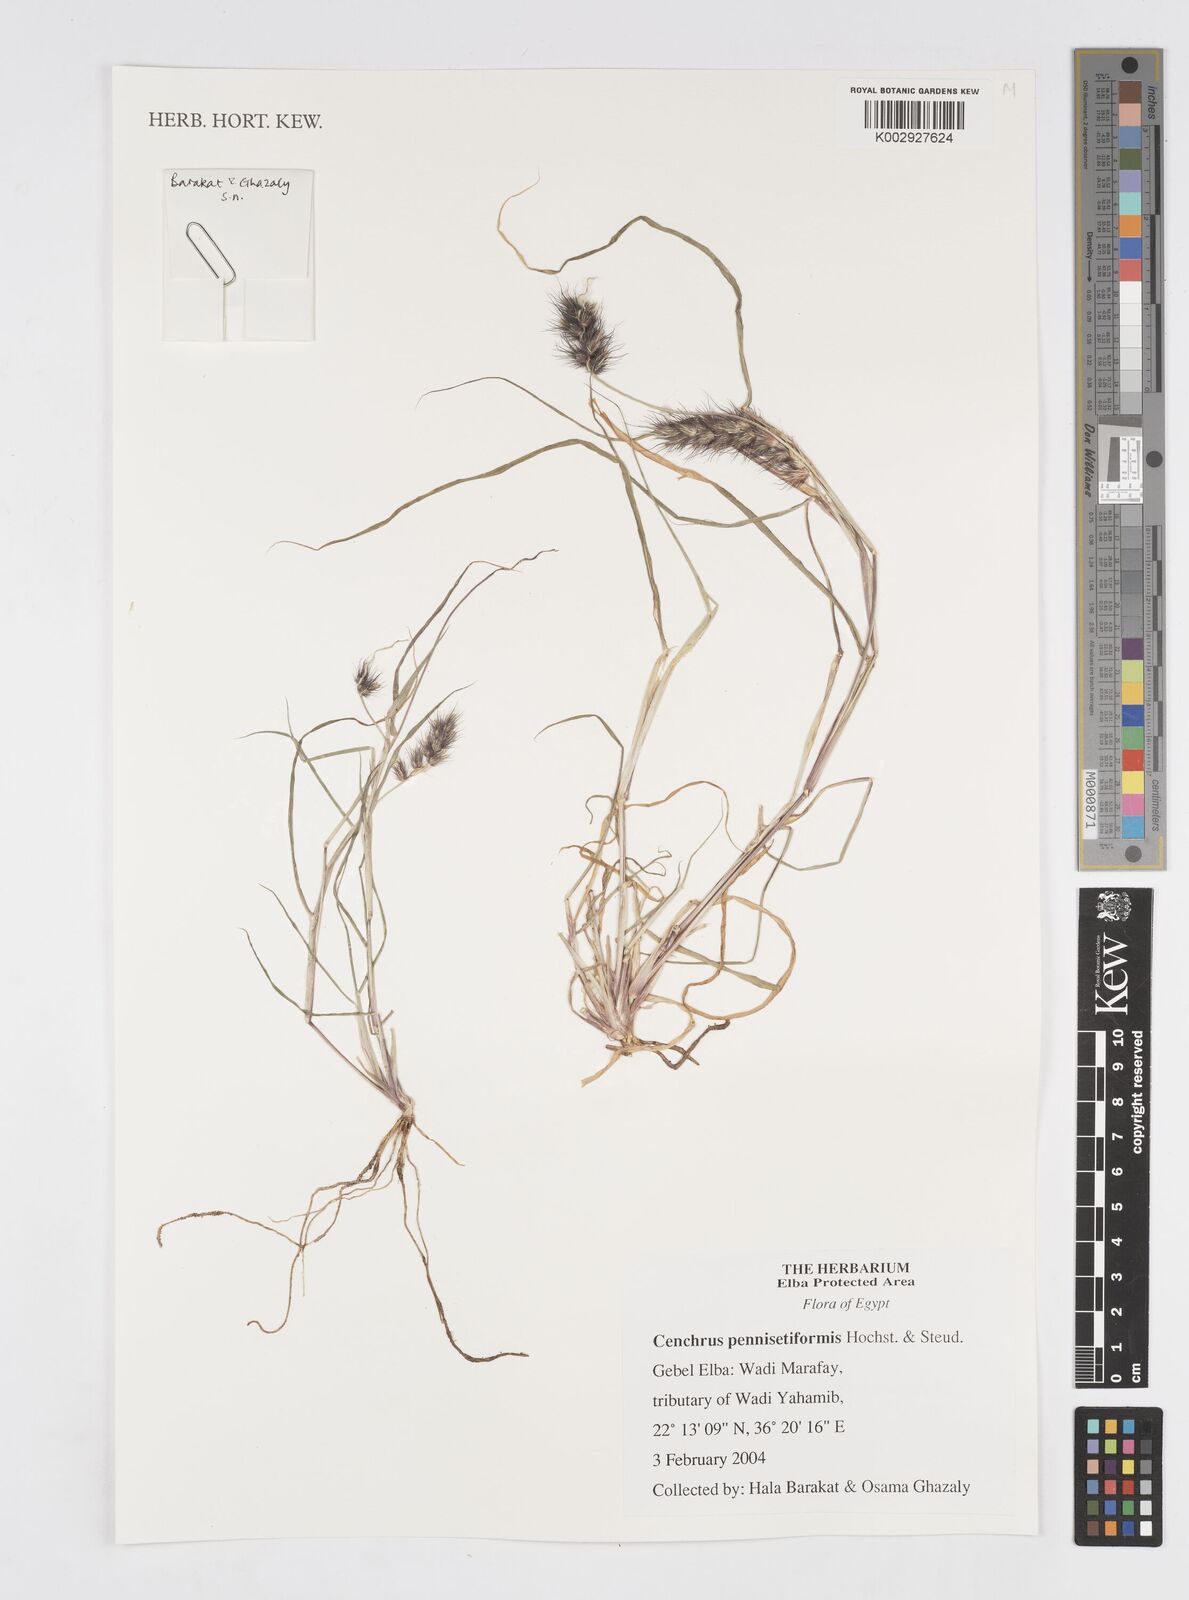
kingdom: Plantae
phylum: Tracheophyta
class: Liliopsida
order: Poales
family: Poaceae
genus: Cenchrus
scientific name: Cenchrus pennisetiformis
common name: Cloncurry
